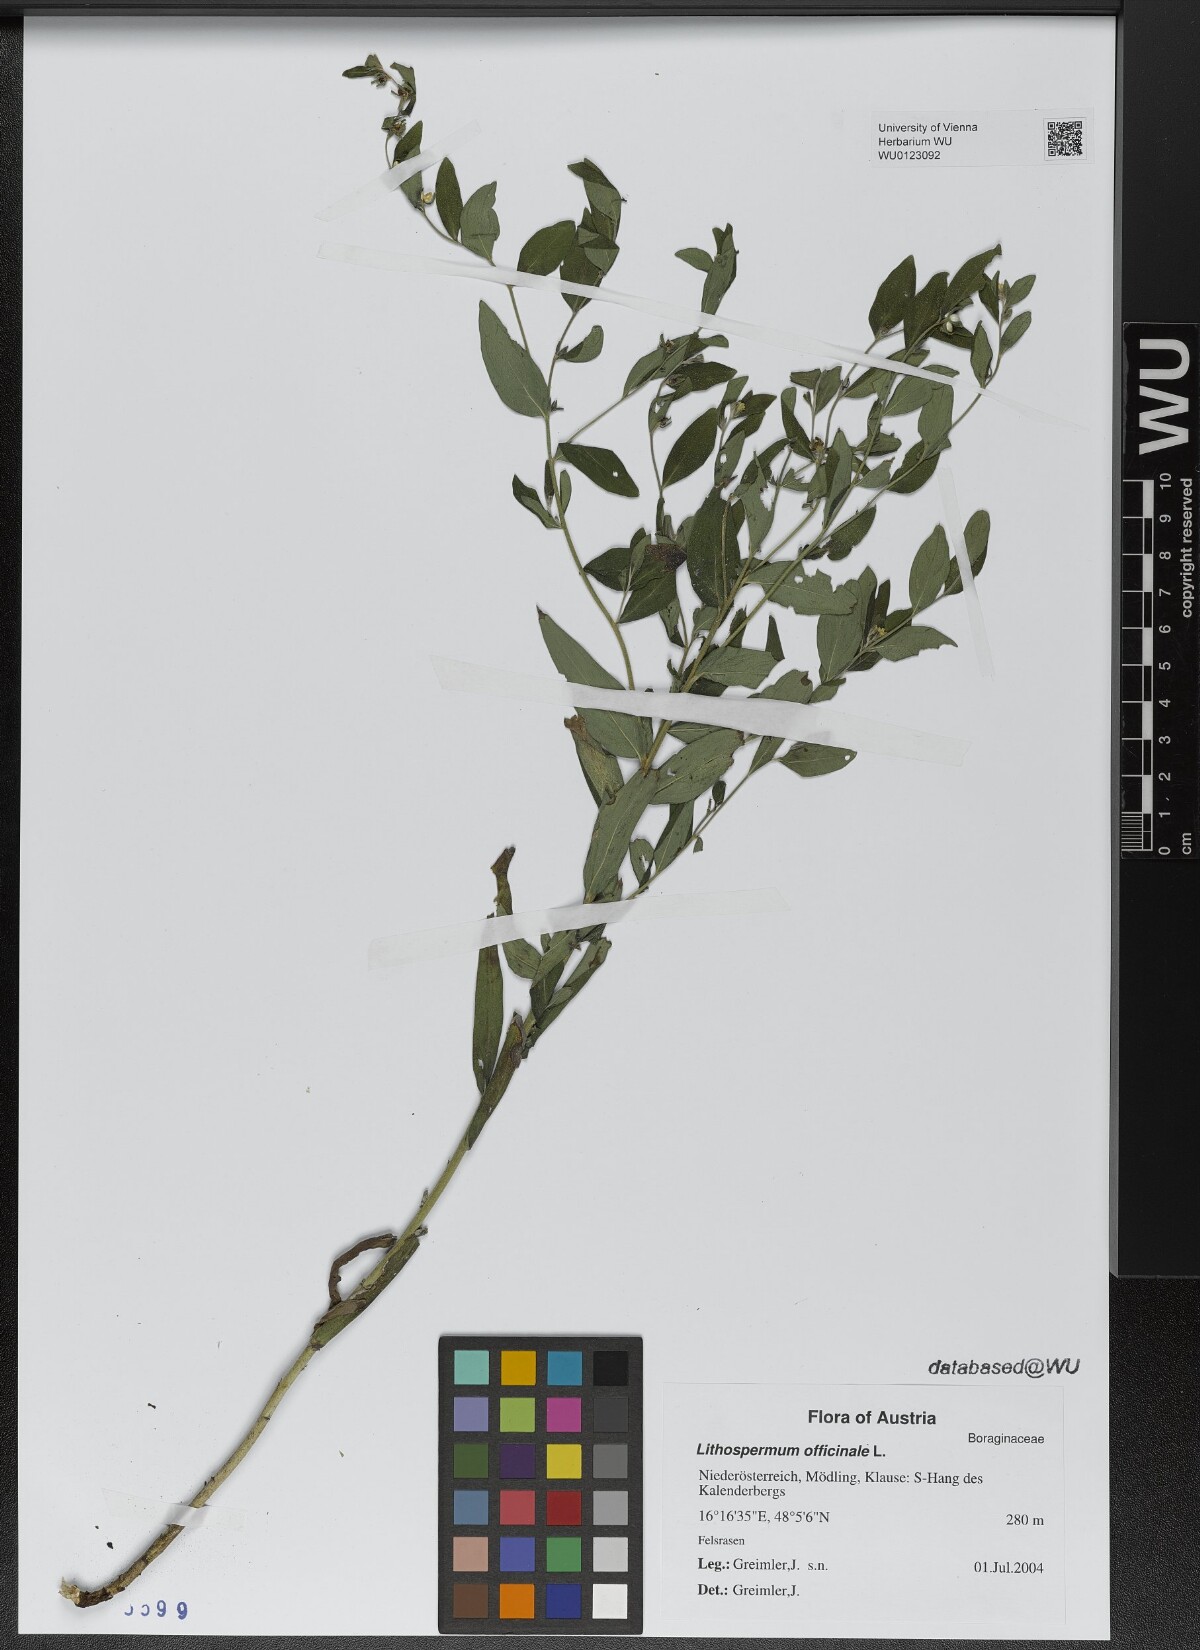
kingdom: Plantae
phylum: Tracheophyta
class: Magnoliopsida
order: Boraginales
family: Boraginaceae
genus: Lithospermum
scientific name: Lithospermum officinale
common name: Common gromwell
